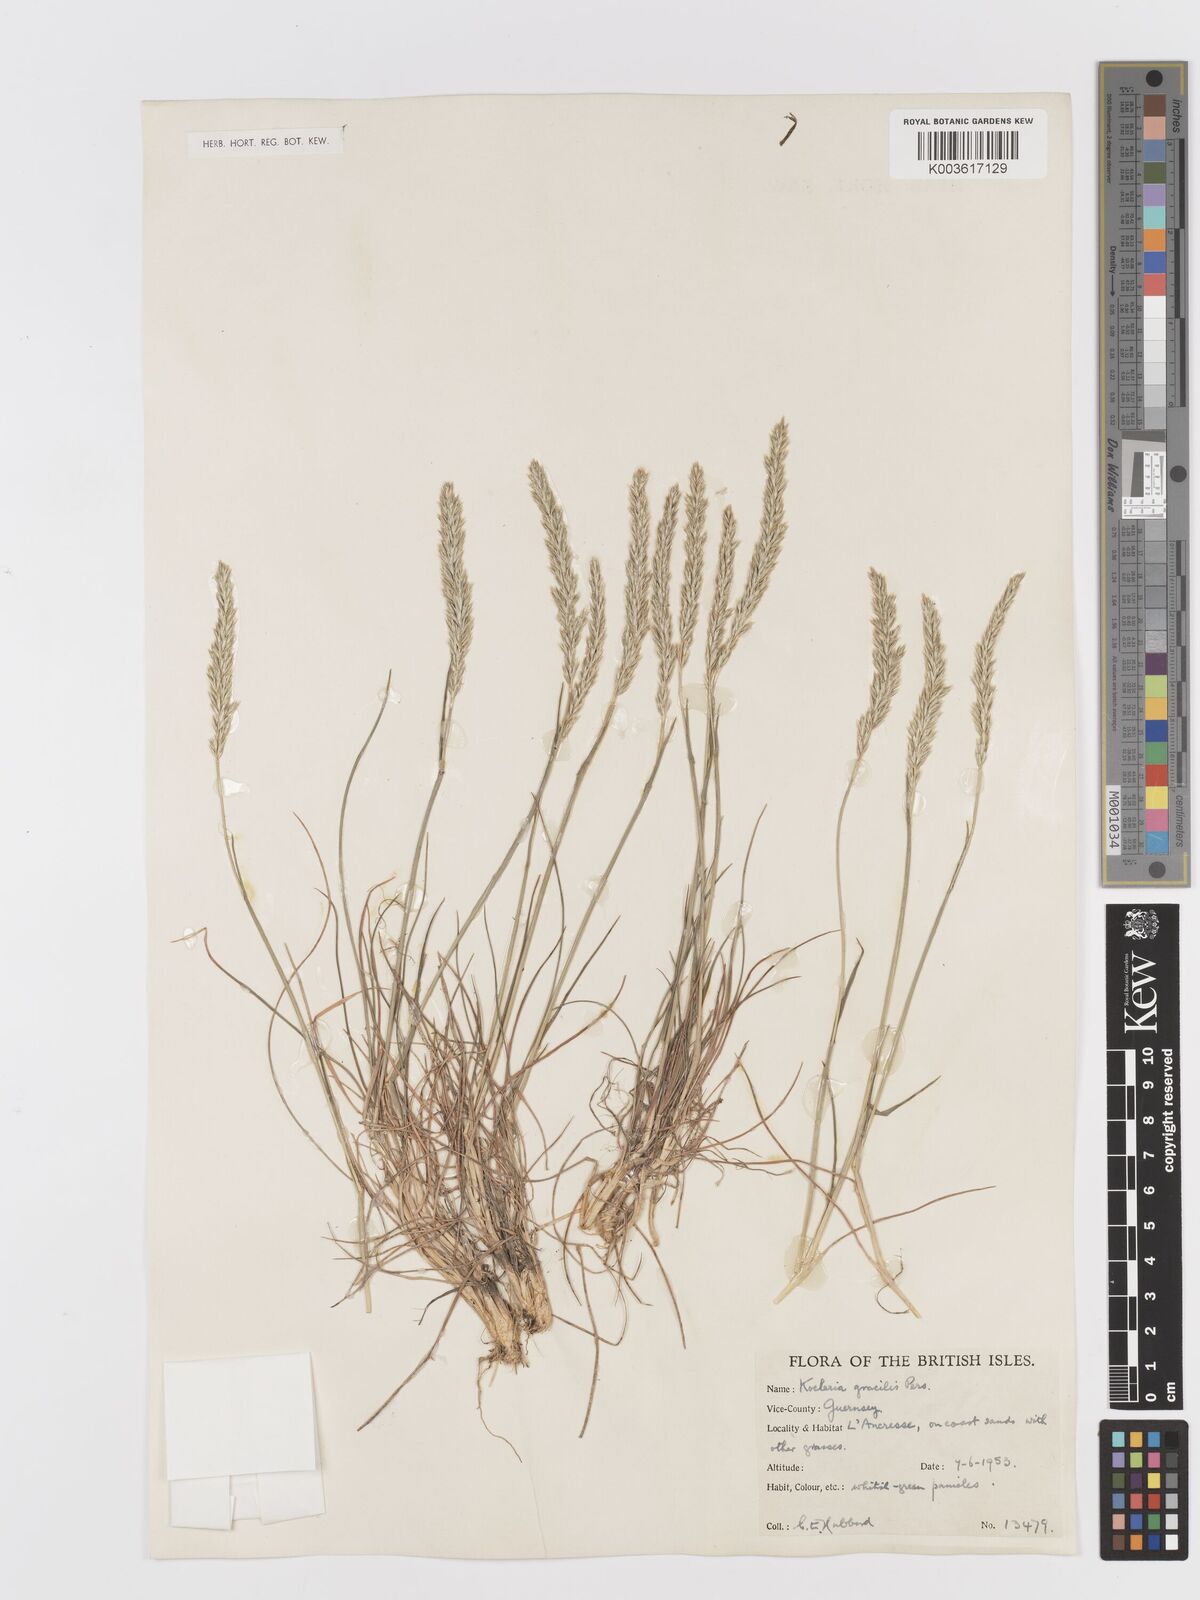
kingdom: Plantae
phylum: Tracheophyta
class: Liliopsida
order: Poales
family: Poaceae
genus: Koeleria
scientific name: Koeleria macrantha
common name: Crested hair-grass
